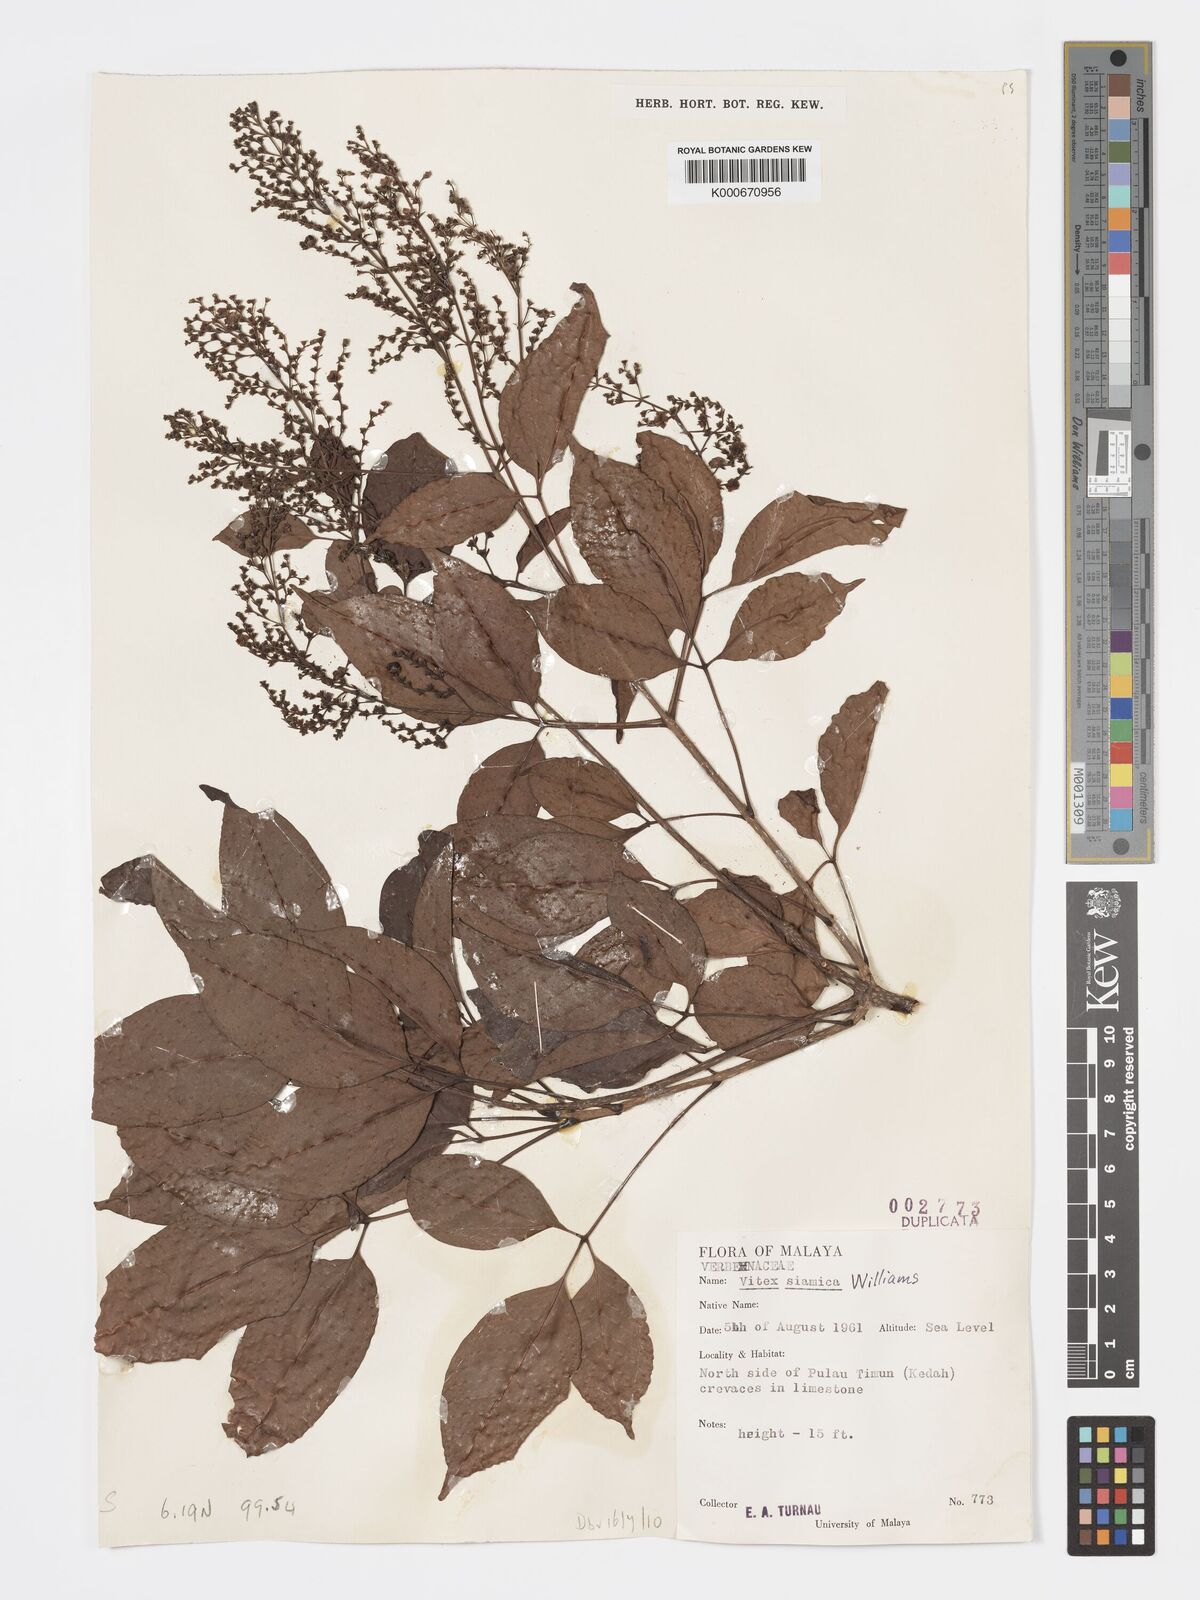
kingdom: Plantae
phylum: Tracheophyta
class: Magnoliopsida
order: Lamiales
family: Lamiaceae
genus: Vitex
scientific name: Vitex siamica
